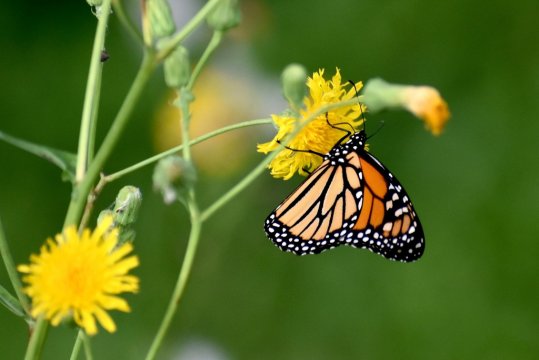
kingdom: Animalia
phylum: Arthropoda
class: Insecta
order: Lepidoptera
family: Nymphalidae
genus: Danaus
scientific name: Danaus plexippus
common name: Monarch
